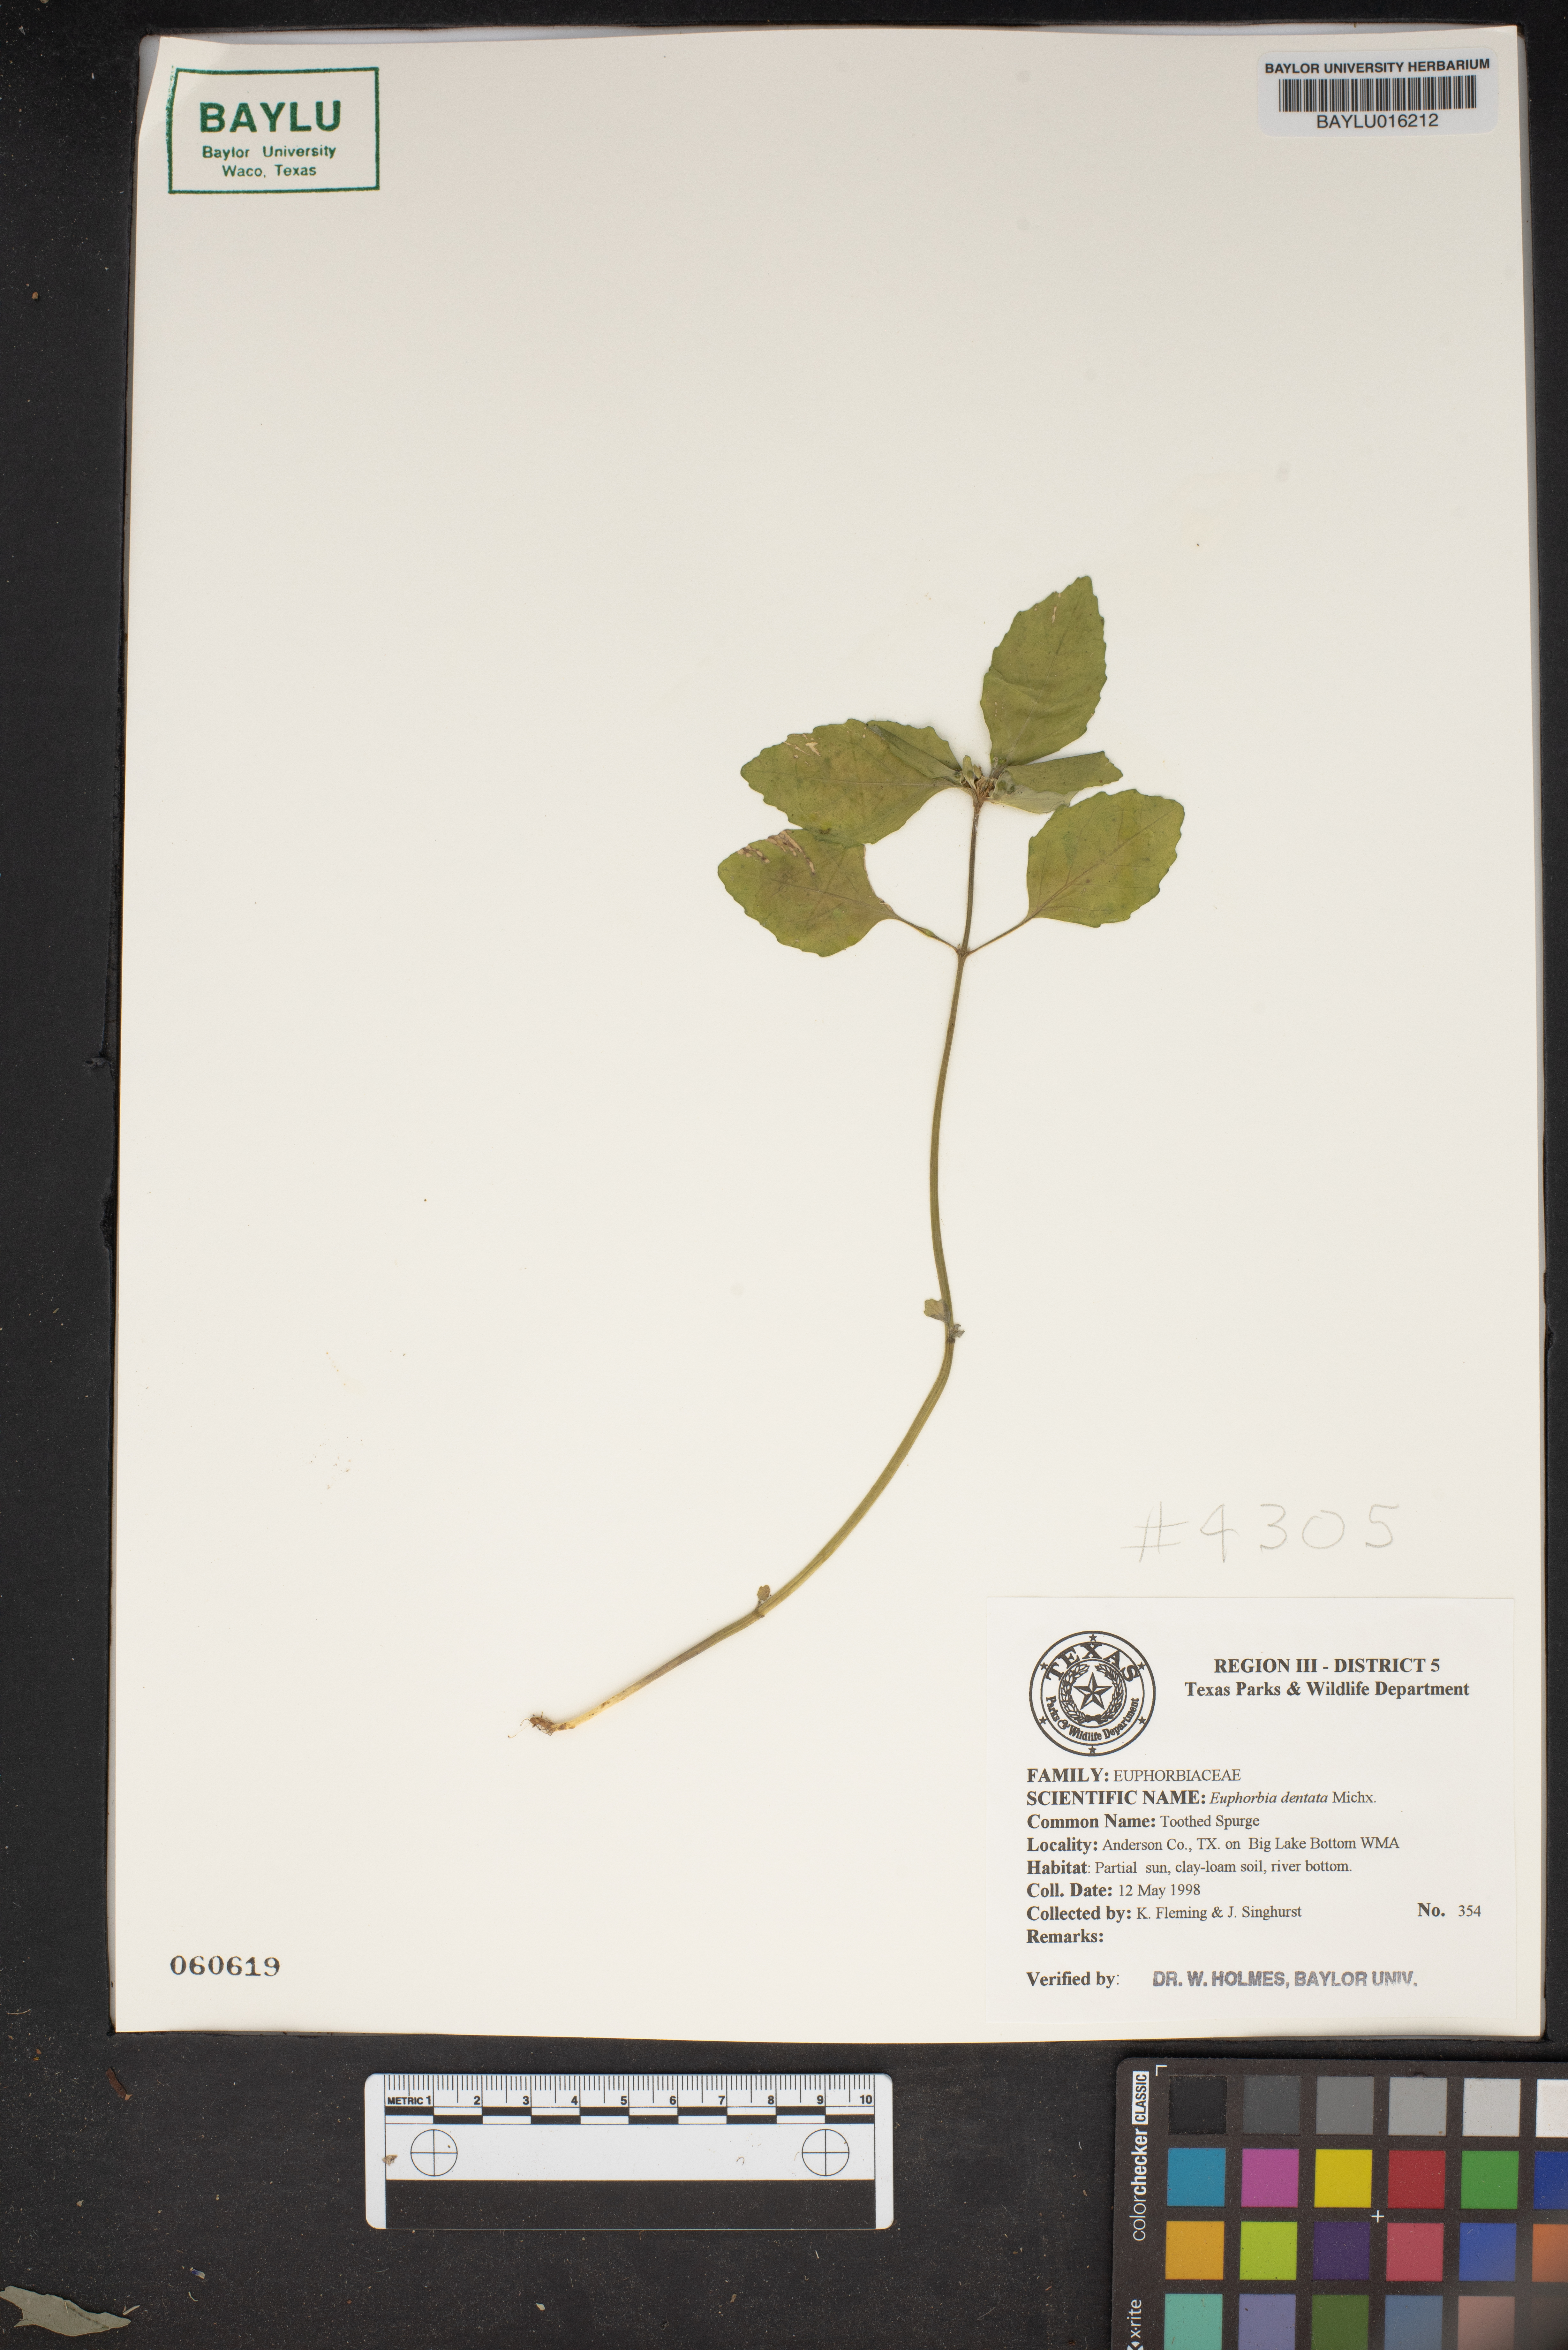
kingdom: Plantae
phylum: Tracheophyta
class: Magnoliopsida
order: Malpighiales
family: Euphorbiaceae
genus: Euphorbia
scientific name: Euphorbia dentata
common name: Dentate spurge
